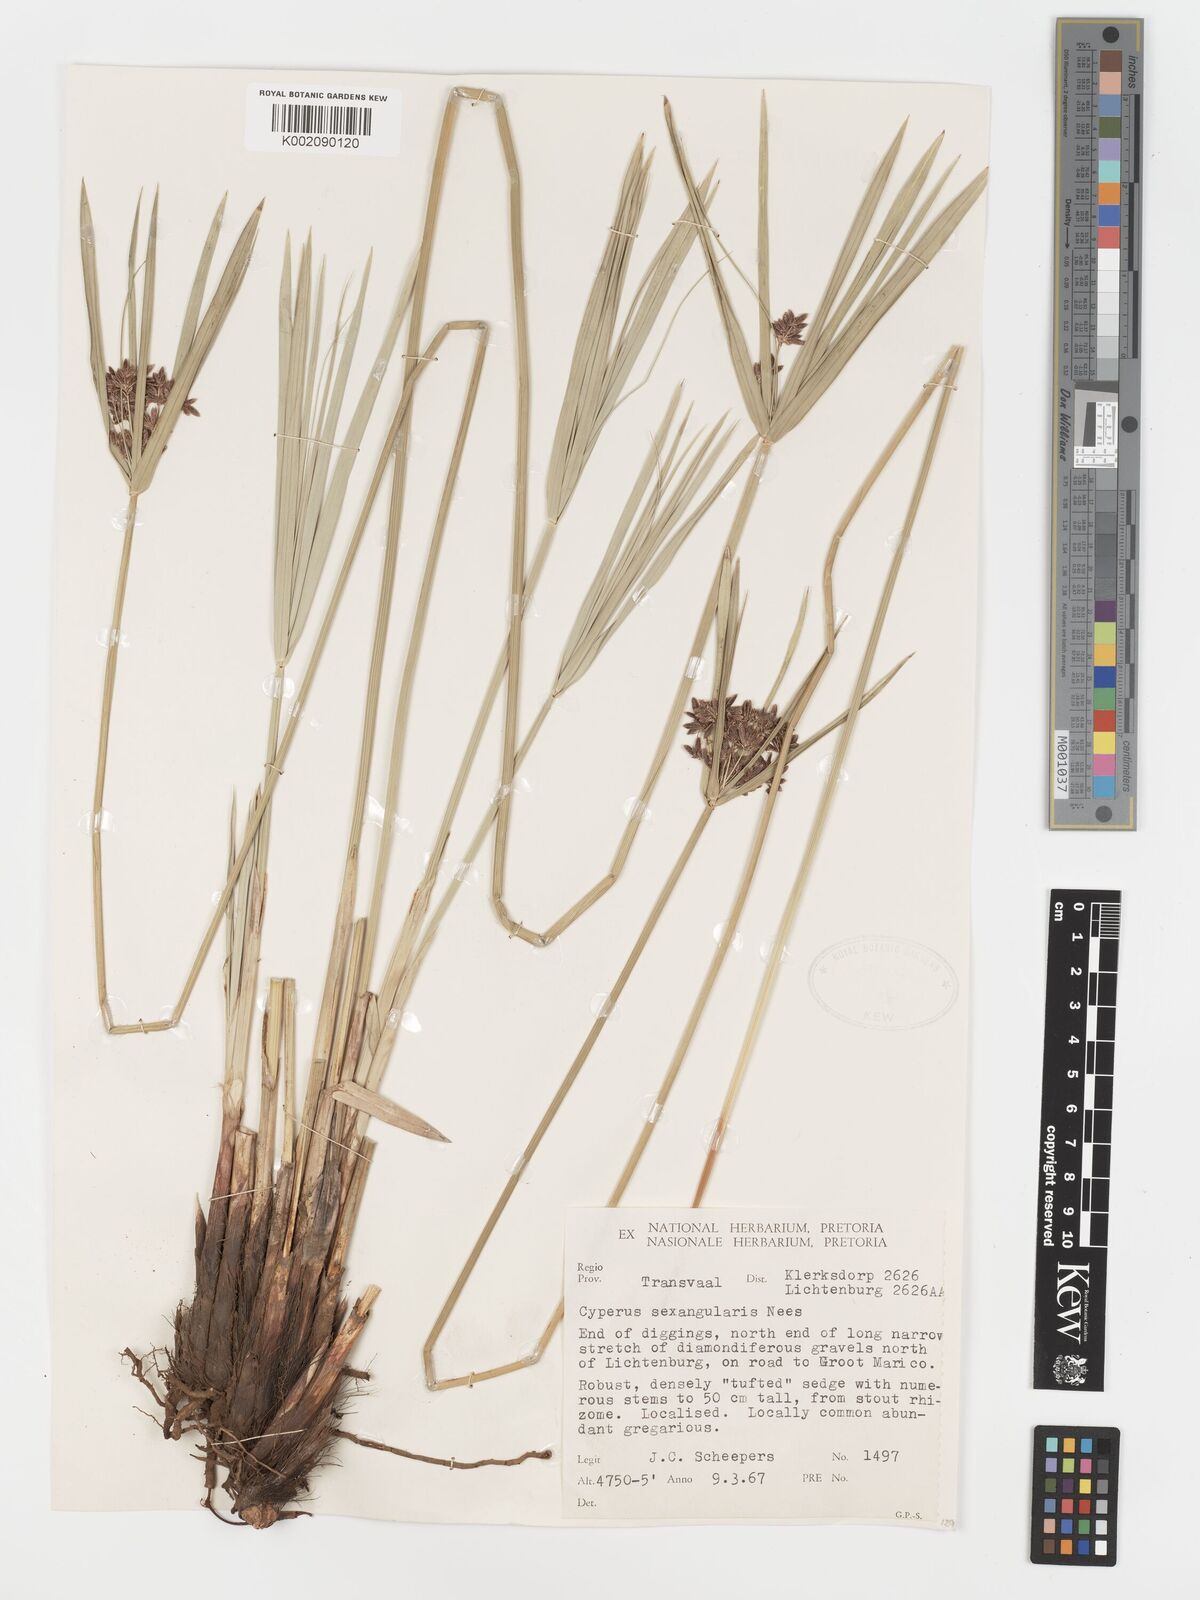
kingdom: Plantae
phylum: Tracheophyta
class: Liliopsida
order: Poales
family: Cyperaceae
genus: Cyperus
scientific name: Cyperus sexangularis
